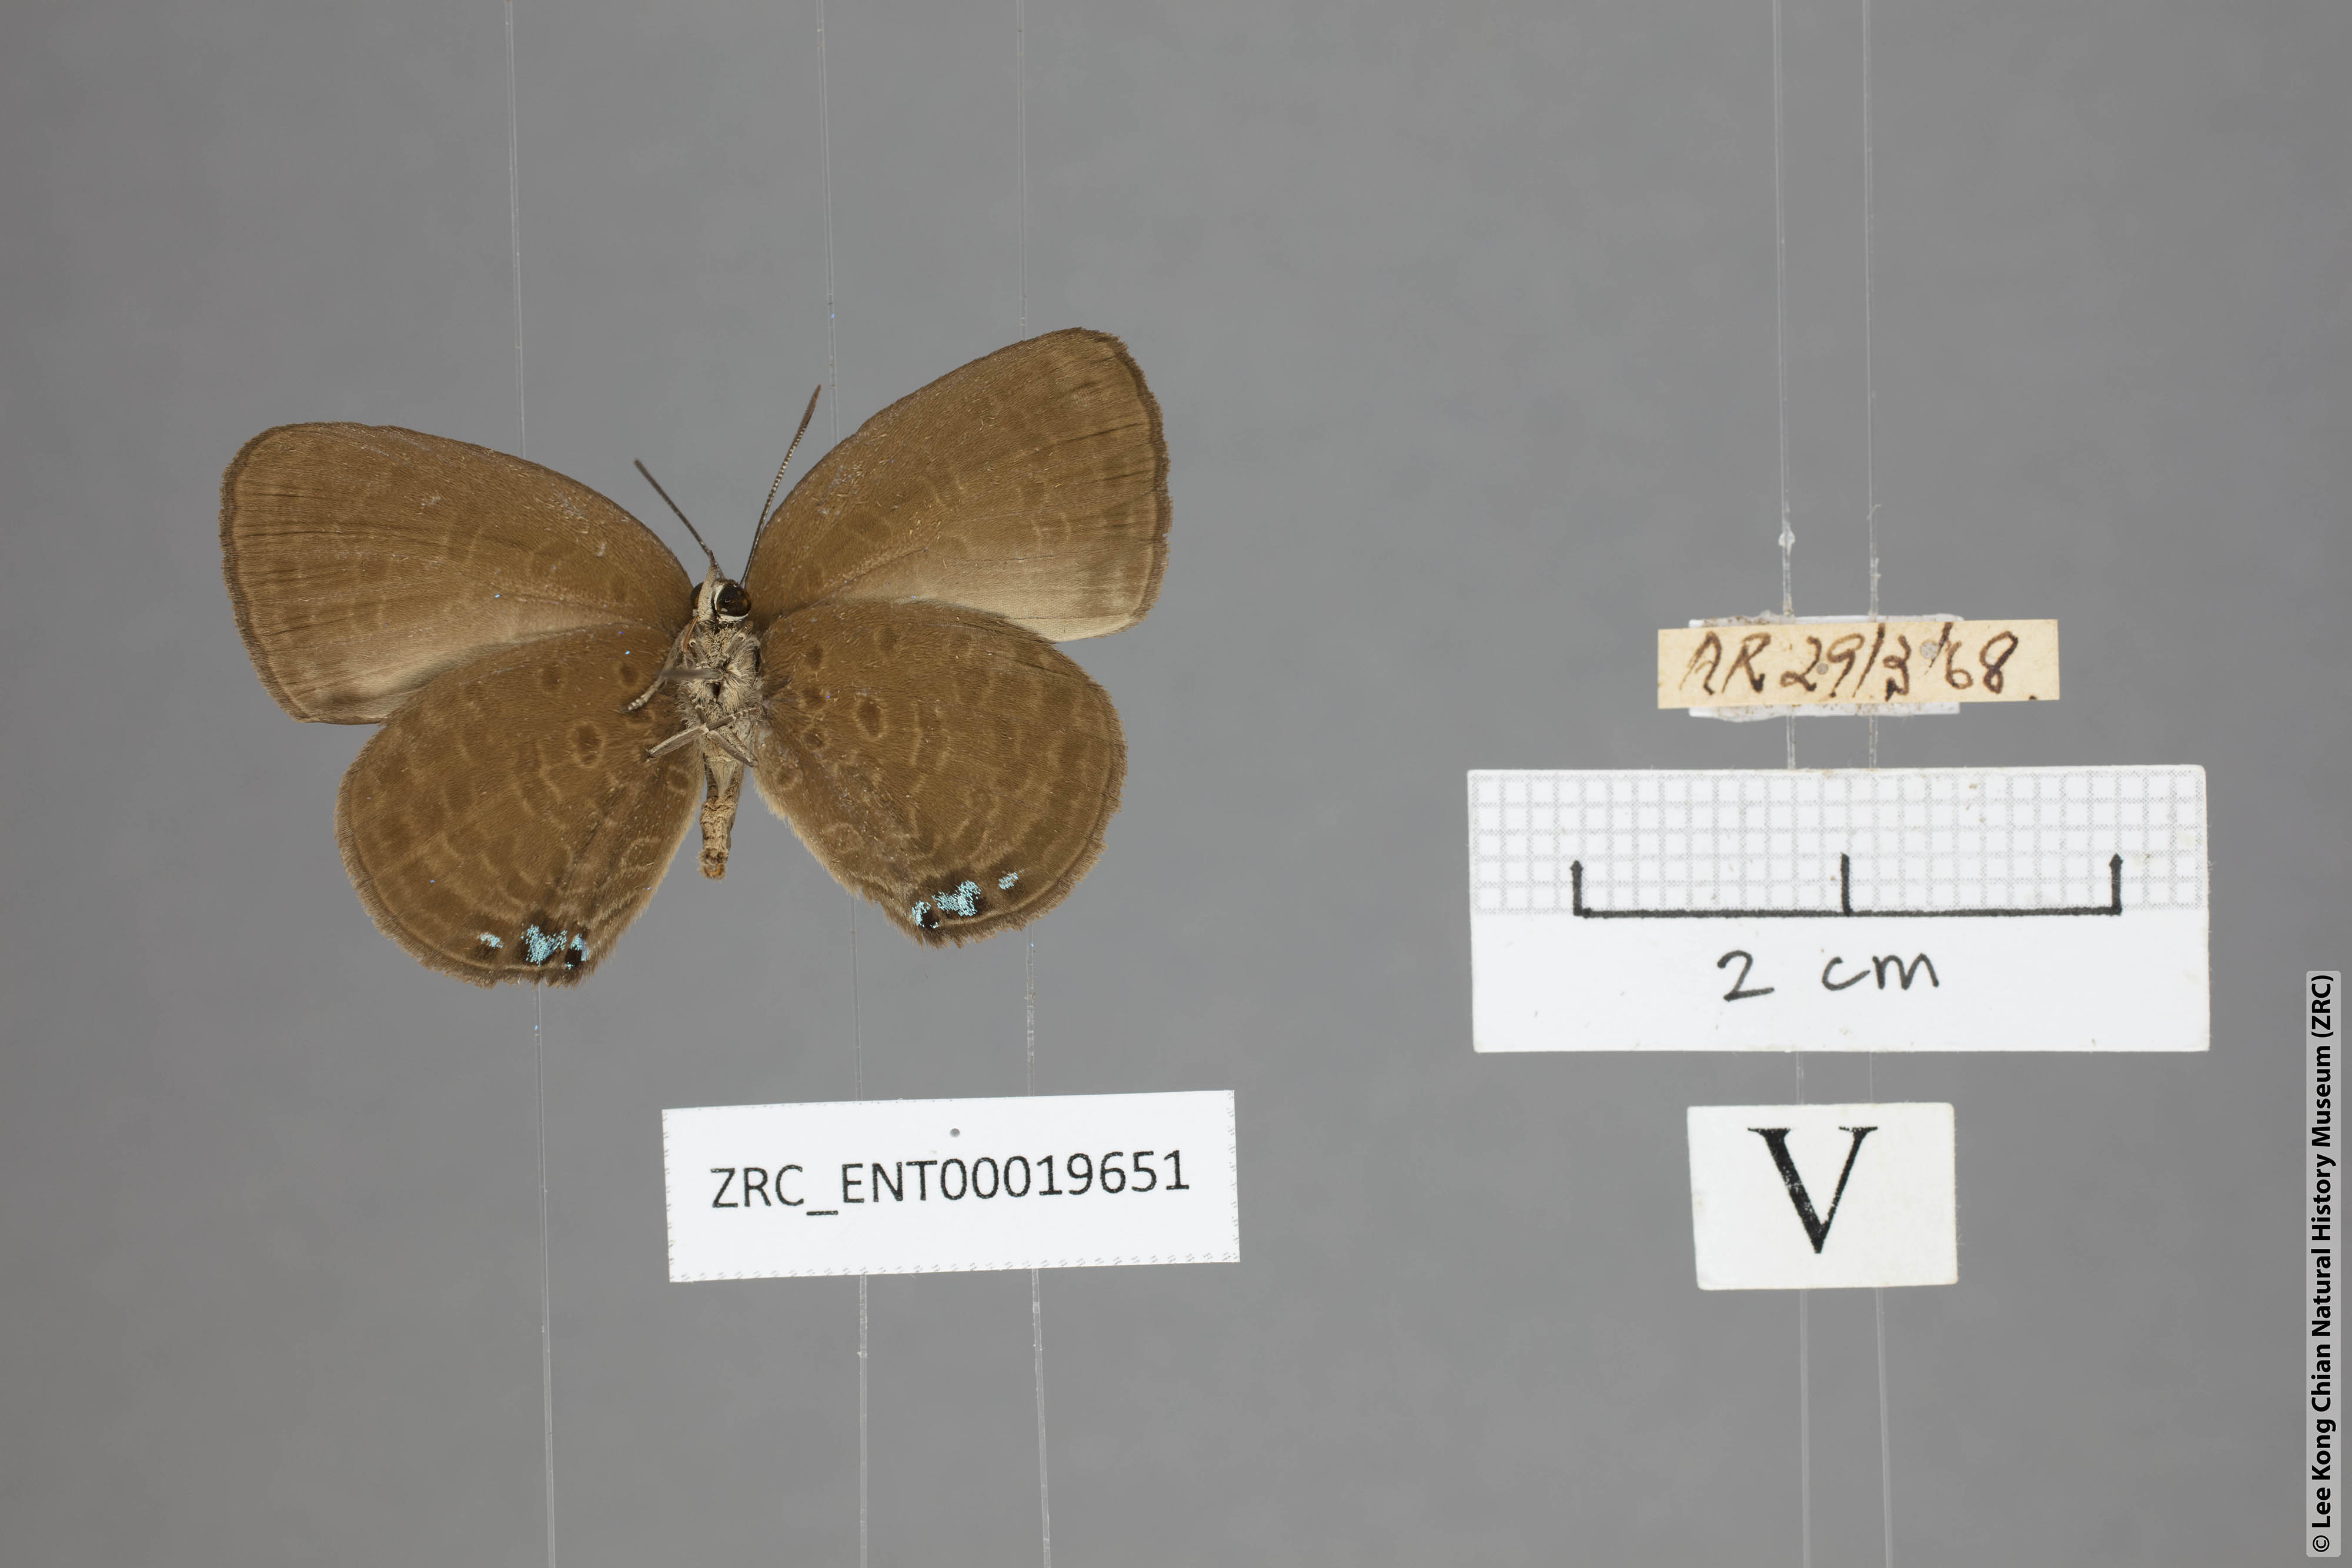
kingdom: Animalia
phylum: Arthropoda
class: Insecta
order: Lepidoptera
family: Lycaenidae
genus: Arhopala
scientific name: Arhopala metamuta
